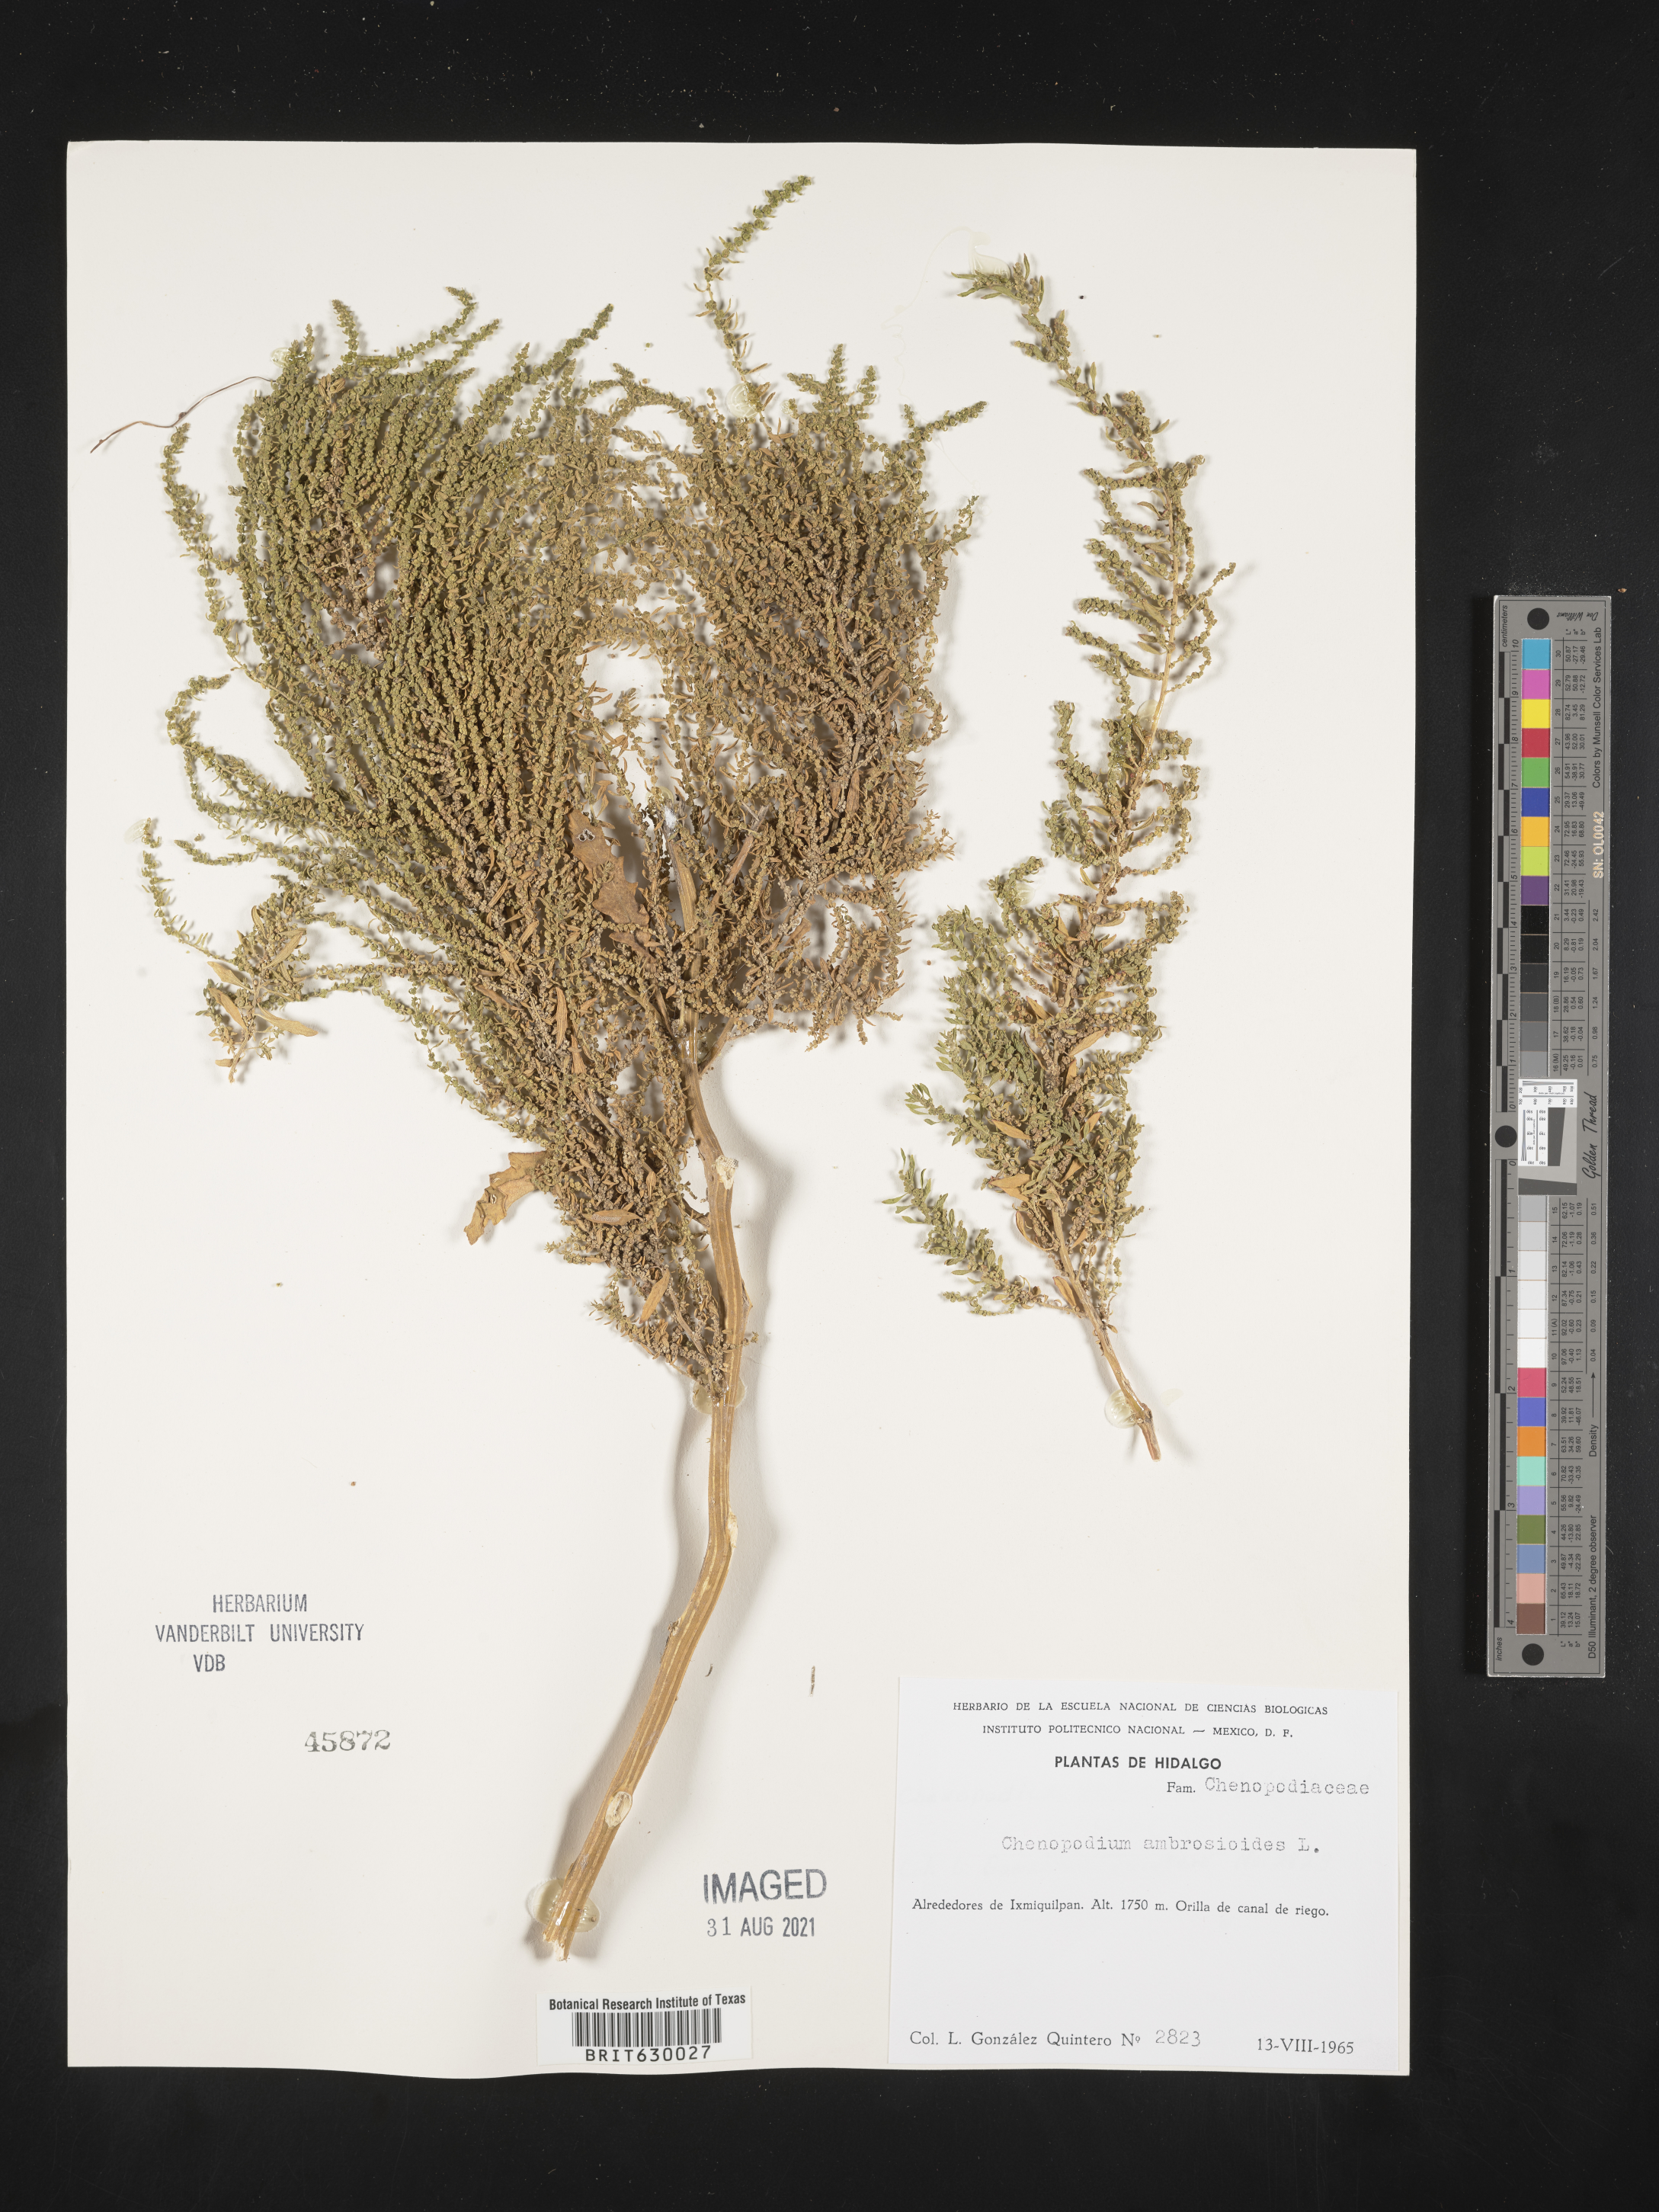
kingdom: Plantae
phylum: Tracheophyta
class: Magnoliopsida
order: Caryophyllales
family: Amaranthaceae
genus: Chenopodium
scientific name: Chenopodium
